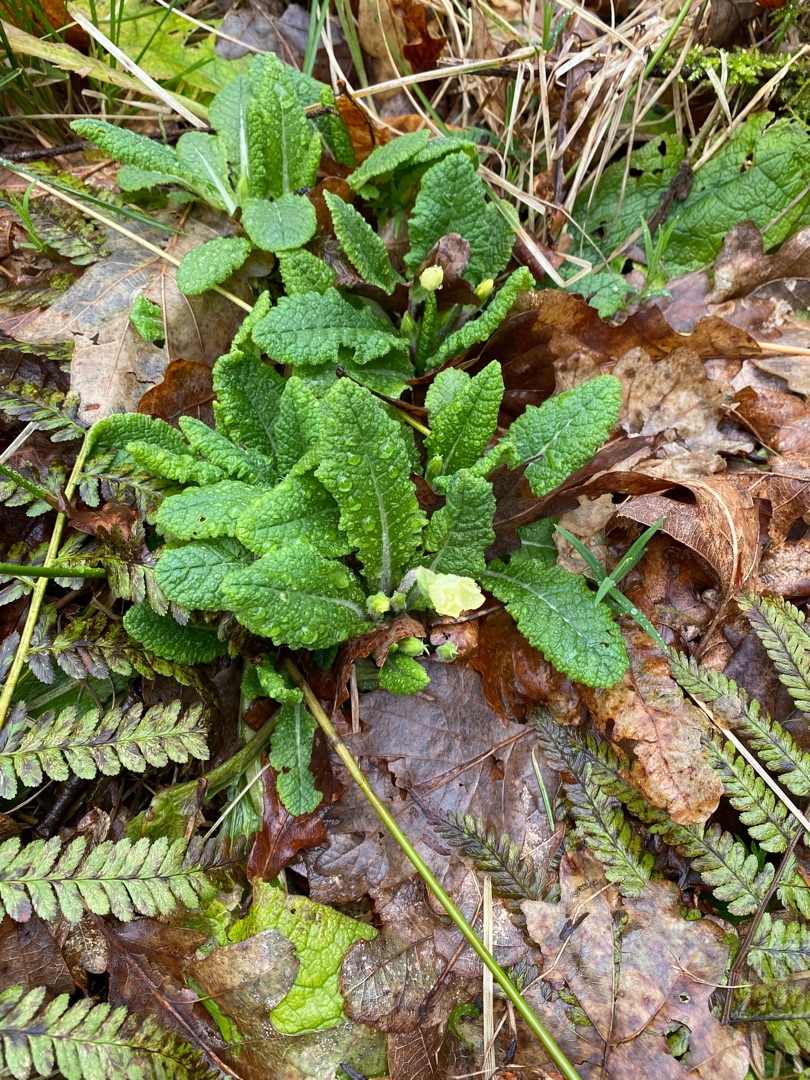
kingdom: Plantae
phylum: Tracheophyta
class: Magnoliopsida
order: Ericales
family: Primulaceae
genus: Primula
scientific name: Primula vulgaris
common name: Storblomstret kodriver
